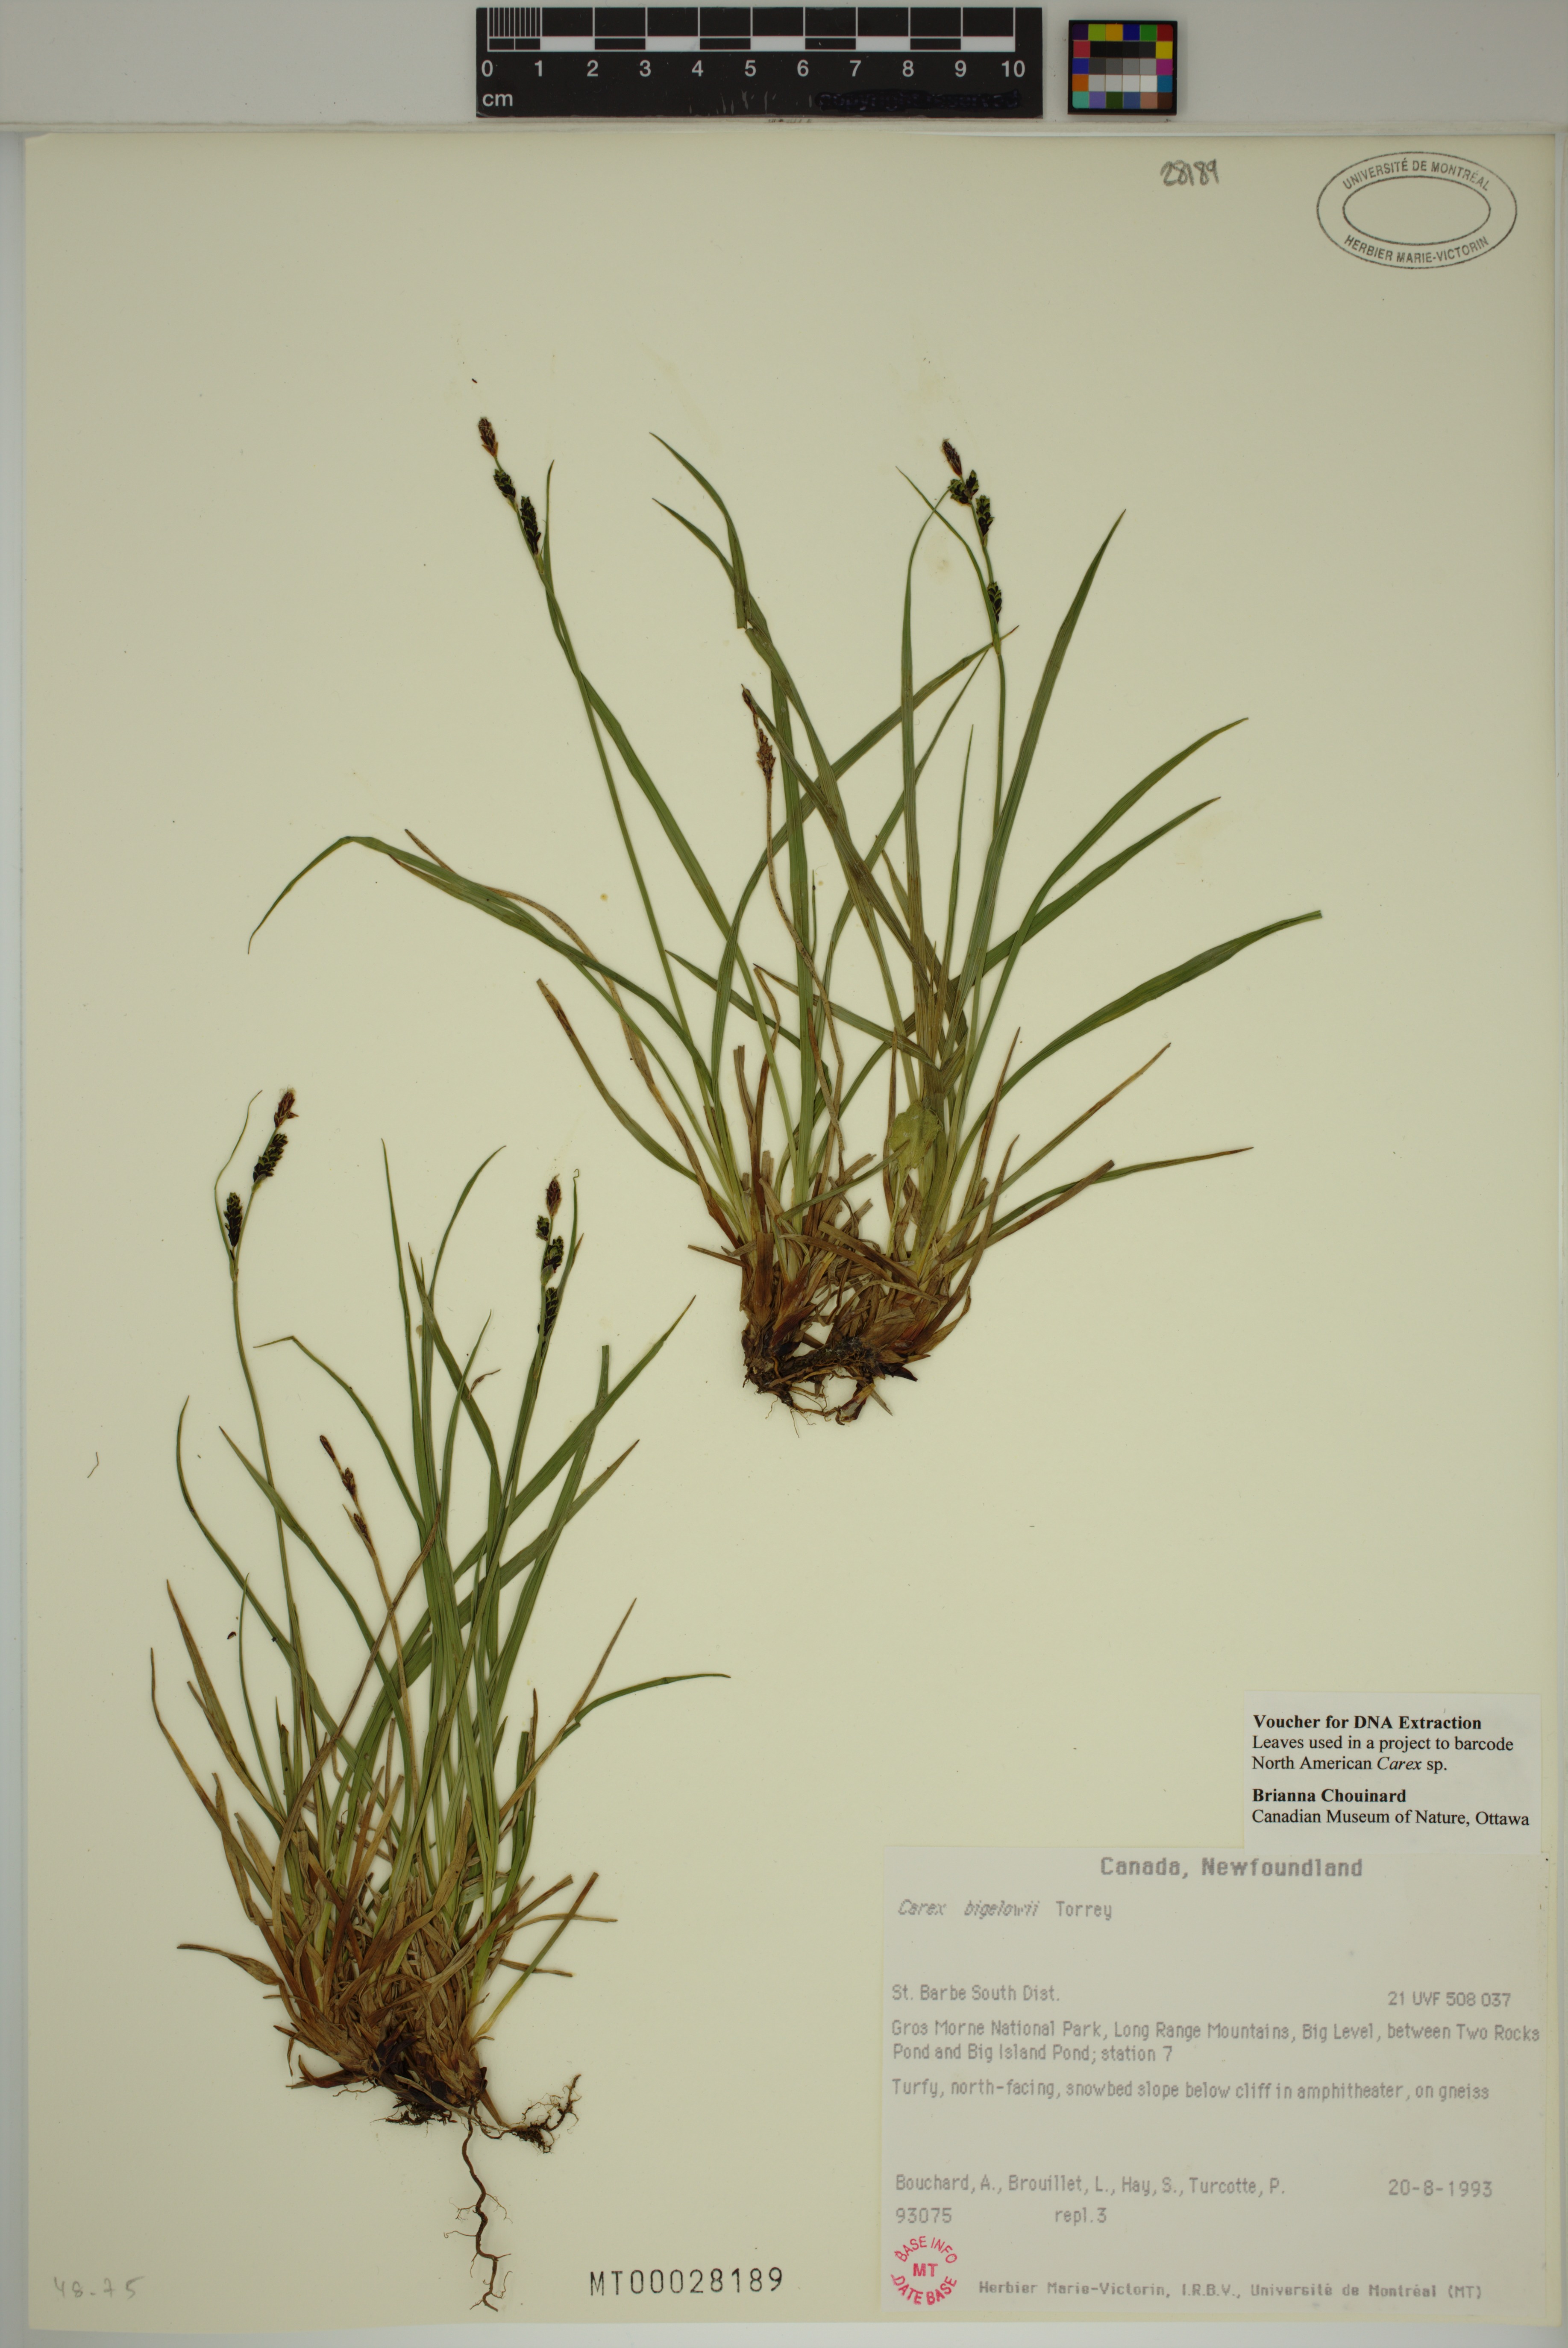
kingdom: Plantae
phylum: Tracheophyta
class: Liliopsida
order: Poales
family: Cyperaceae
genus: Carex
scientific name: Carex bigelowii
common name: Stiff sedge
